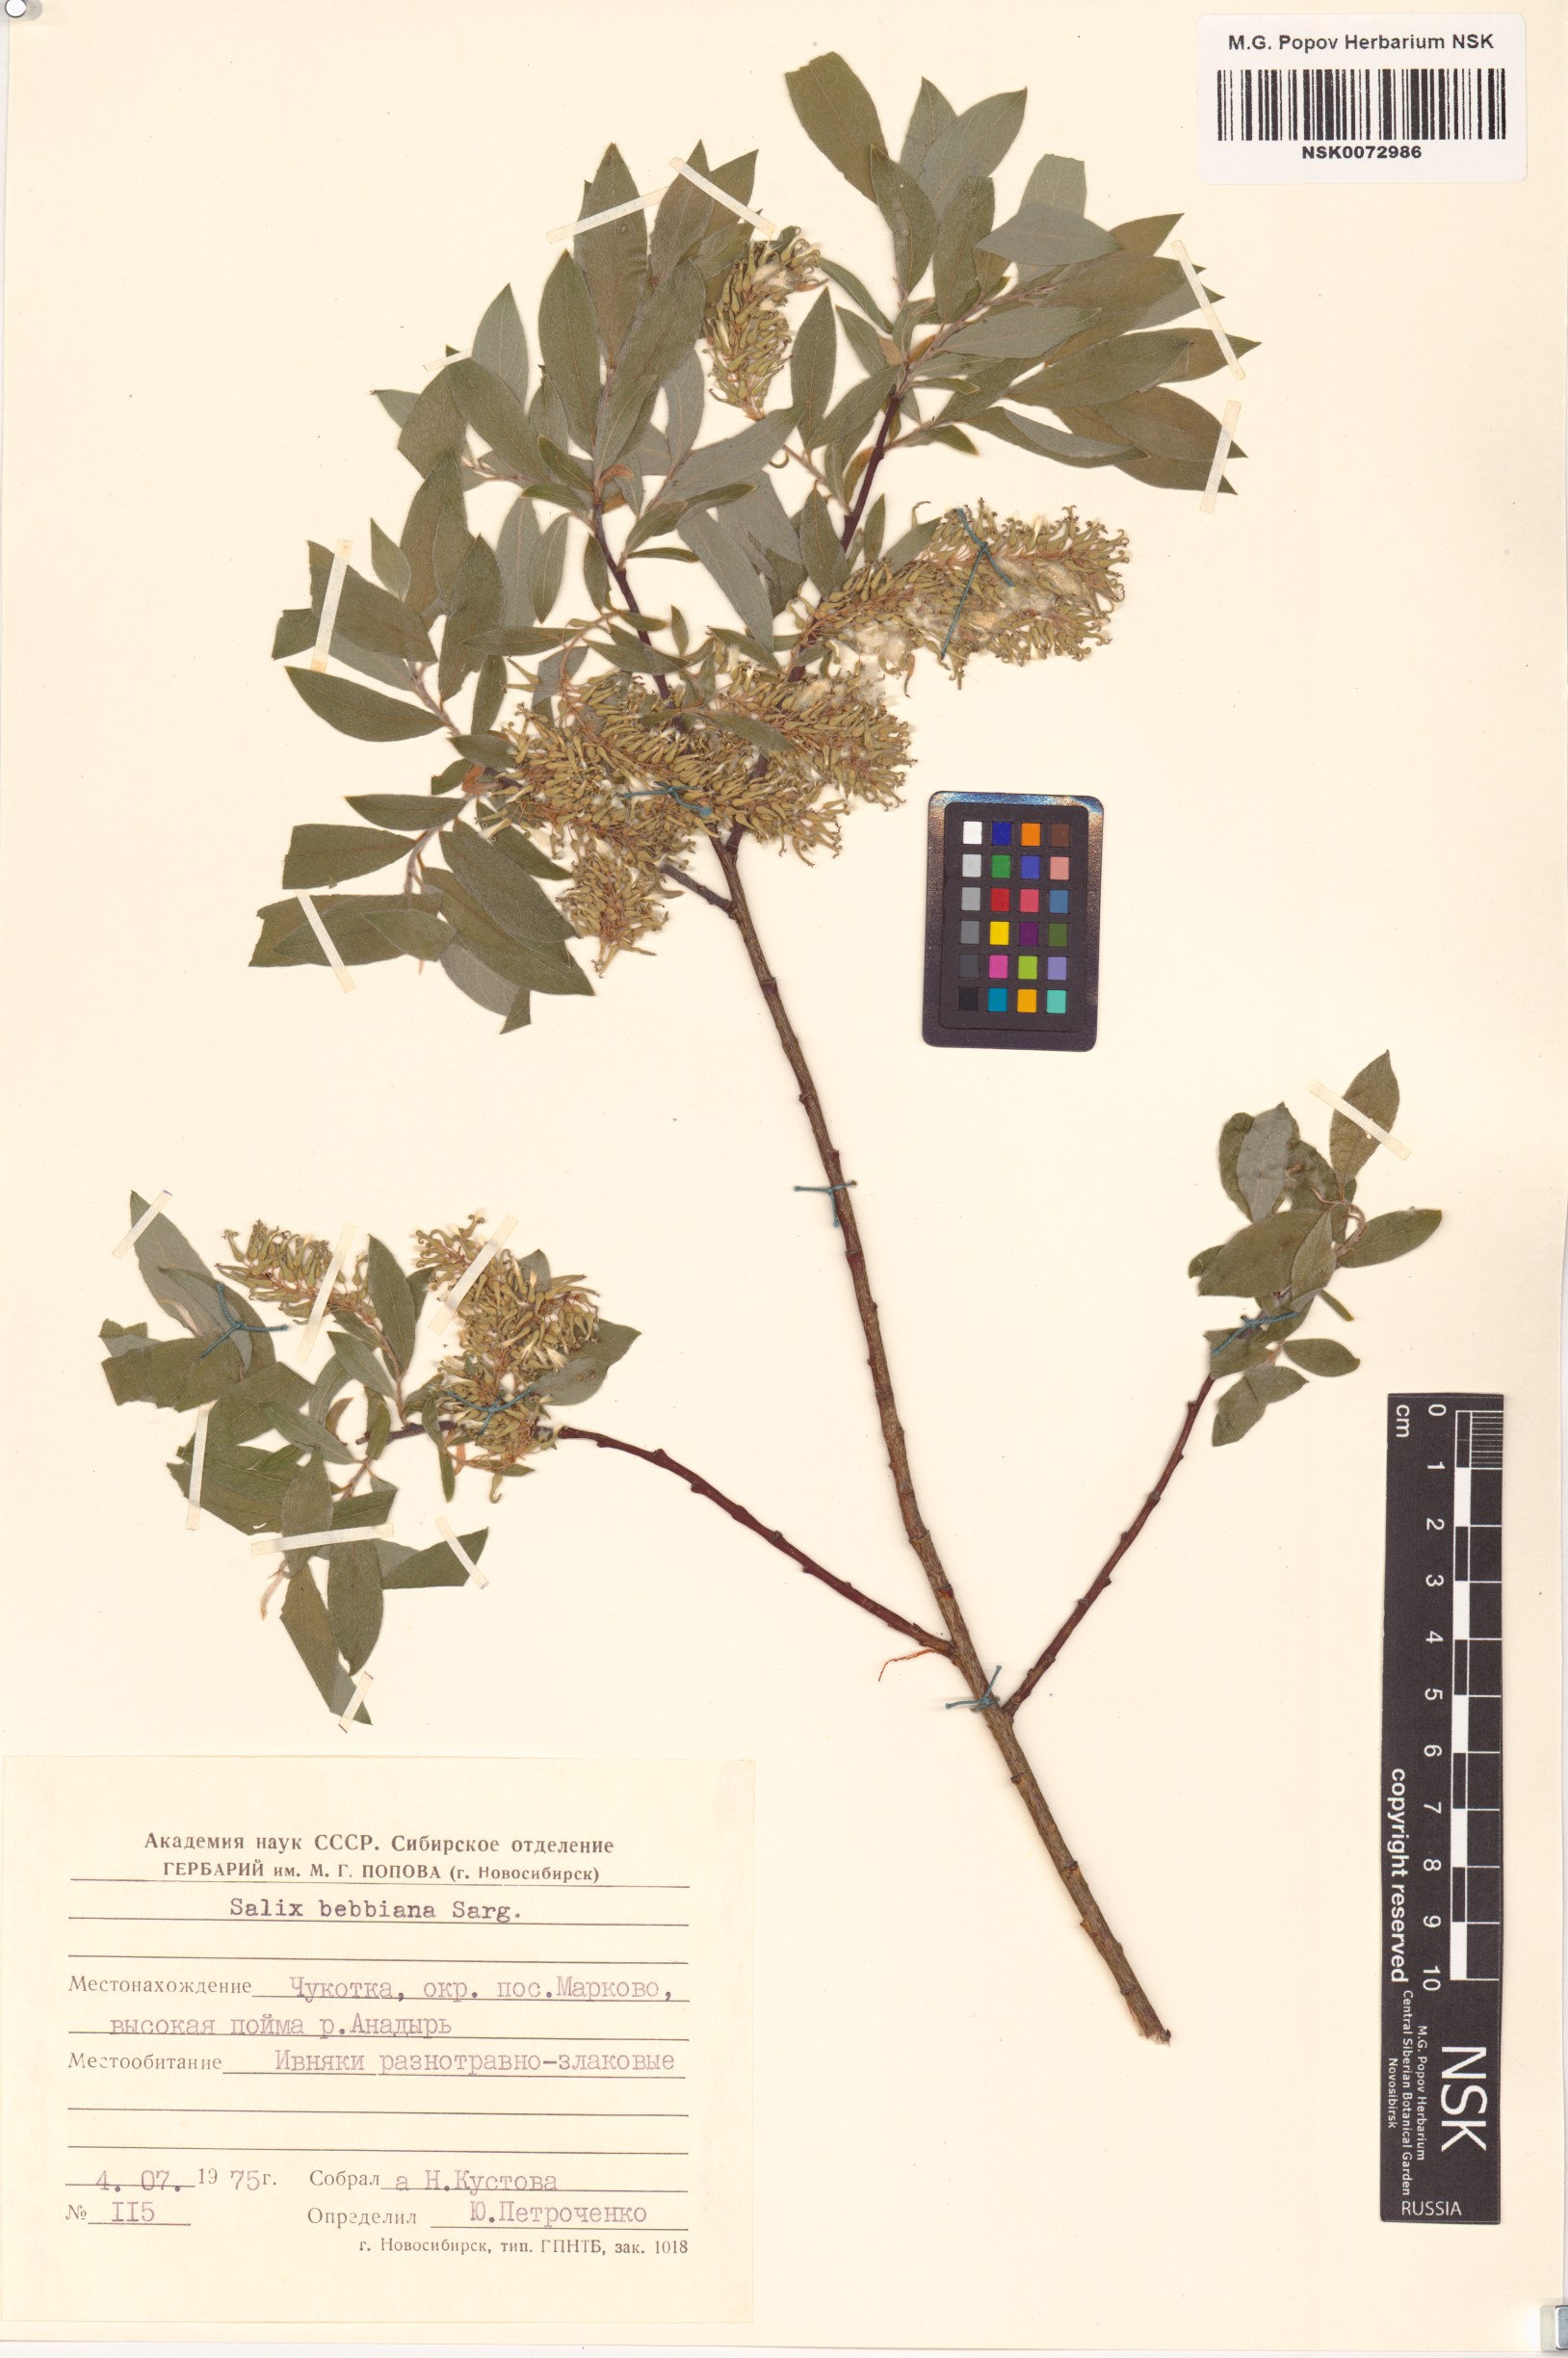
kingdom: Plantae
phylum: Tracheophyta
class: Magnoliopsida
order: Malpighiales
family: Salicaceae
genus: Salix
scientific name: Salix bebbiana
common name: Bebb's willow
